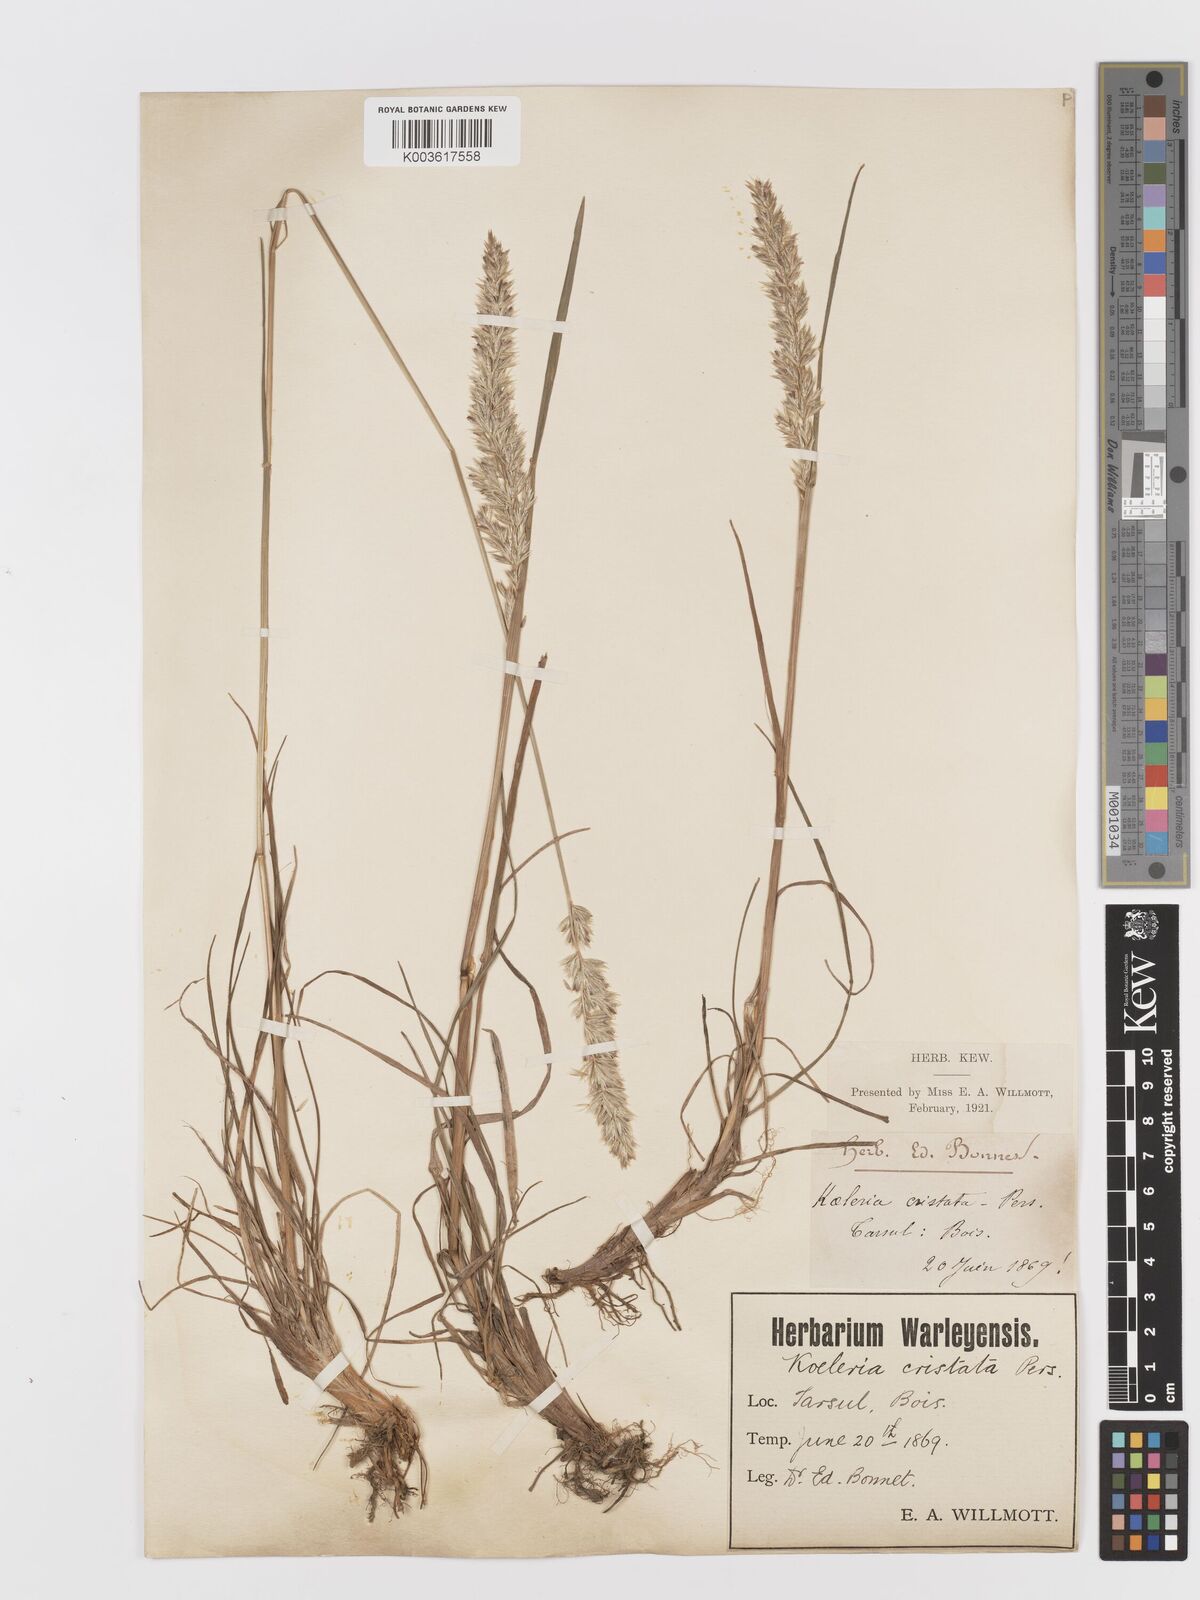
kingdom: Plantae
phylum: Tracheophyta
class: Liliopsida
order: Poales
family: Poaceae
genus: Koeleria
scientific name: Koeleria
